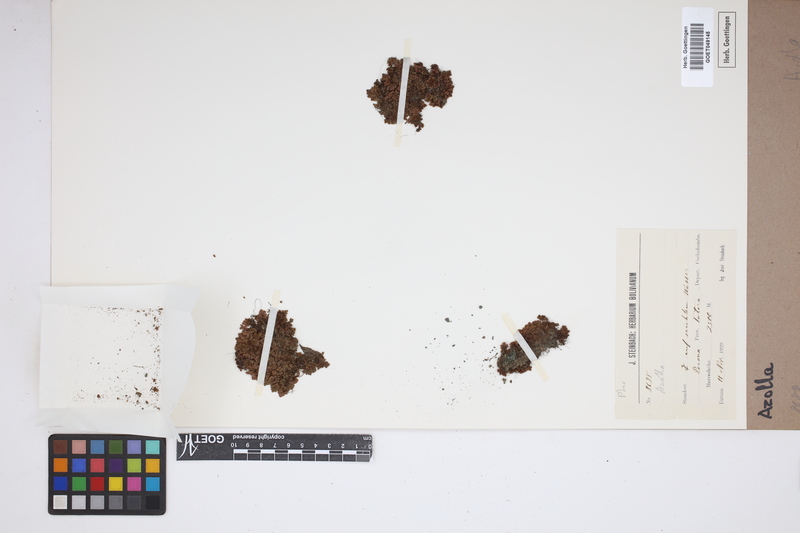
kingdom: Plantae
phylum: Tracheophyta
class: Polypodiopsida
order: Salviniales
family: Salviniaceae
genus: Azolla
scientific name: Azolla
